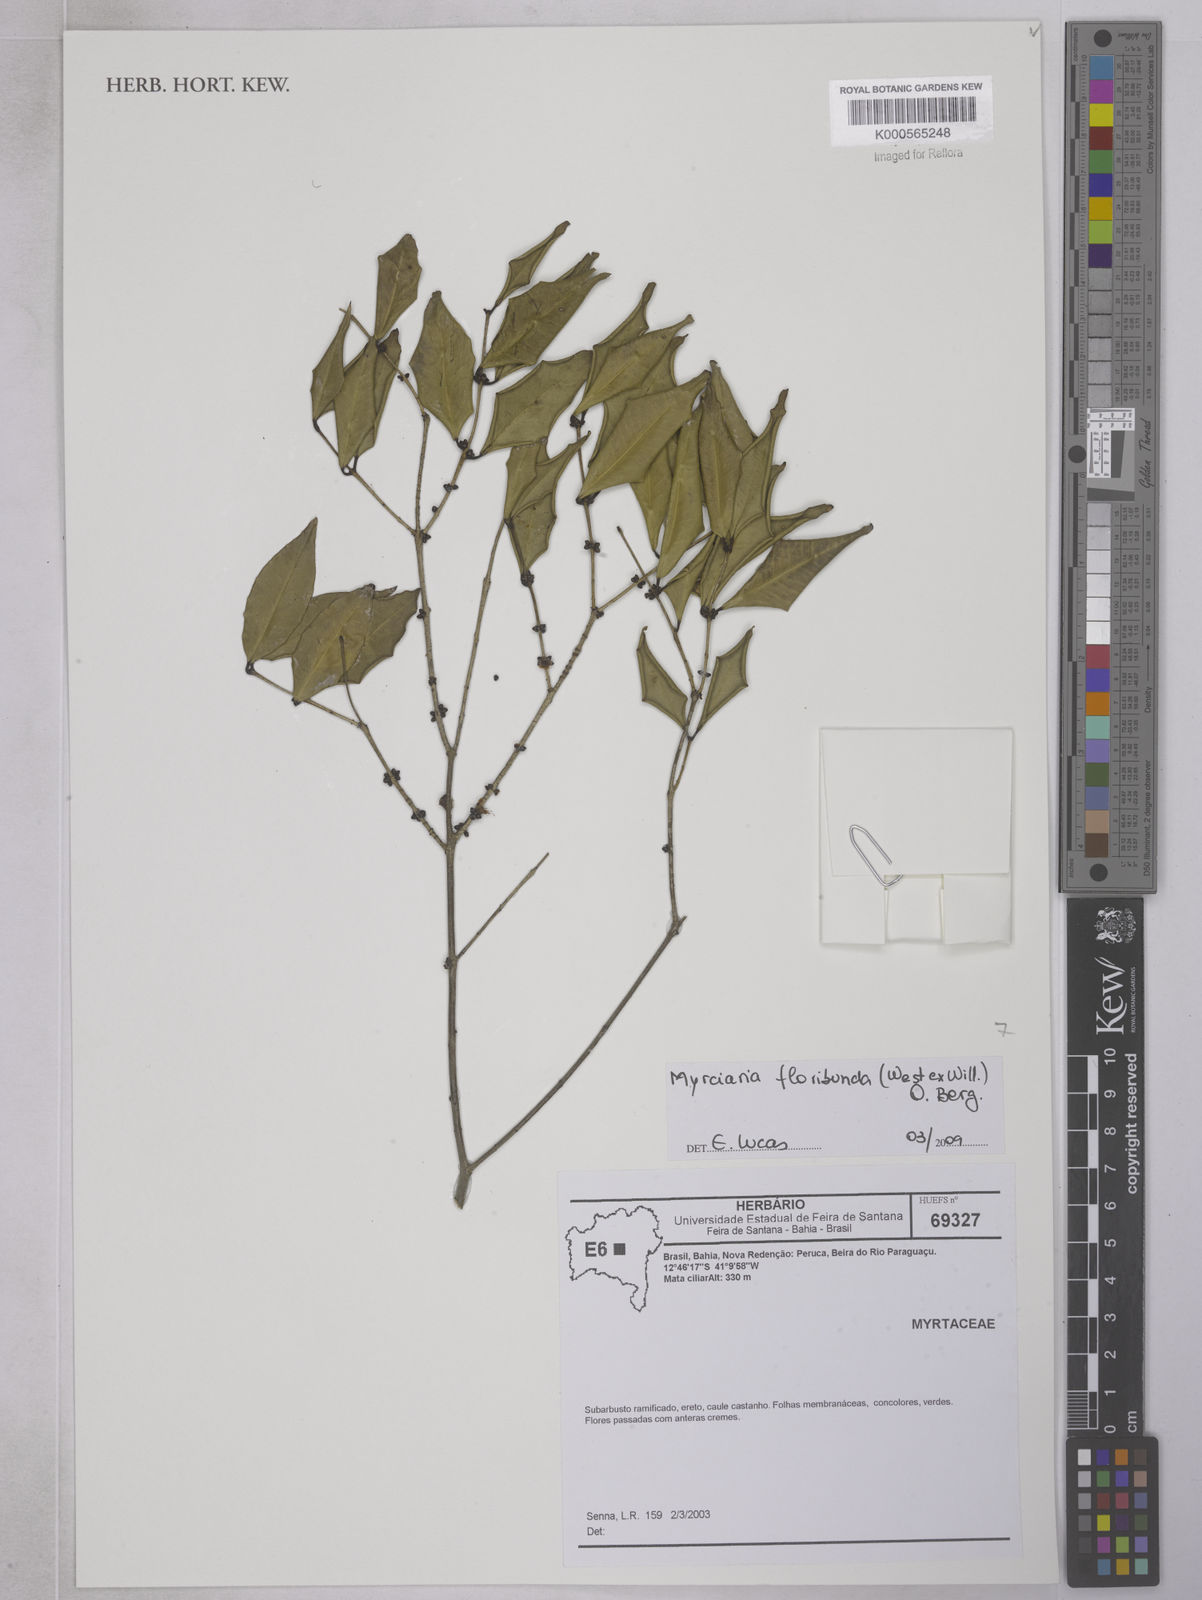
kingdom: Plantae
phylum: Tracheophyta
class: Magnoliopsida
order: Myrtales
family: Myrtaceae
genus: Myrciaria
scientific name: Myrciaria floribunda
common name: Guavaberry
